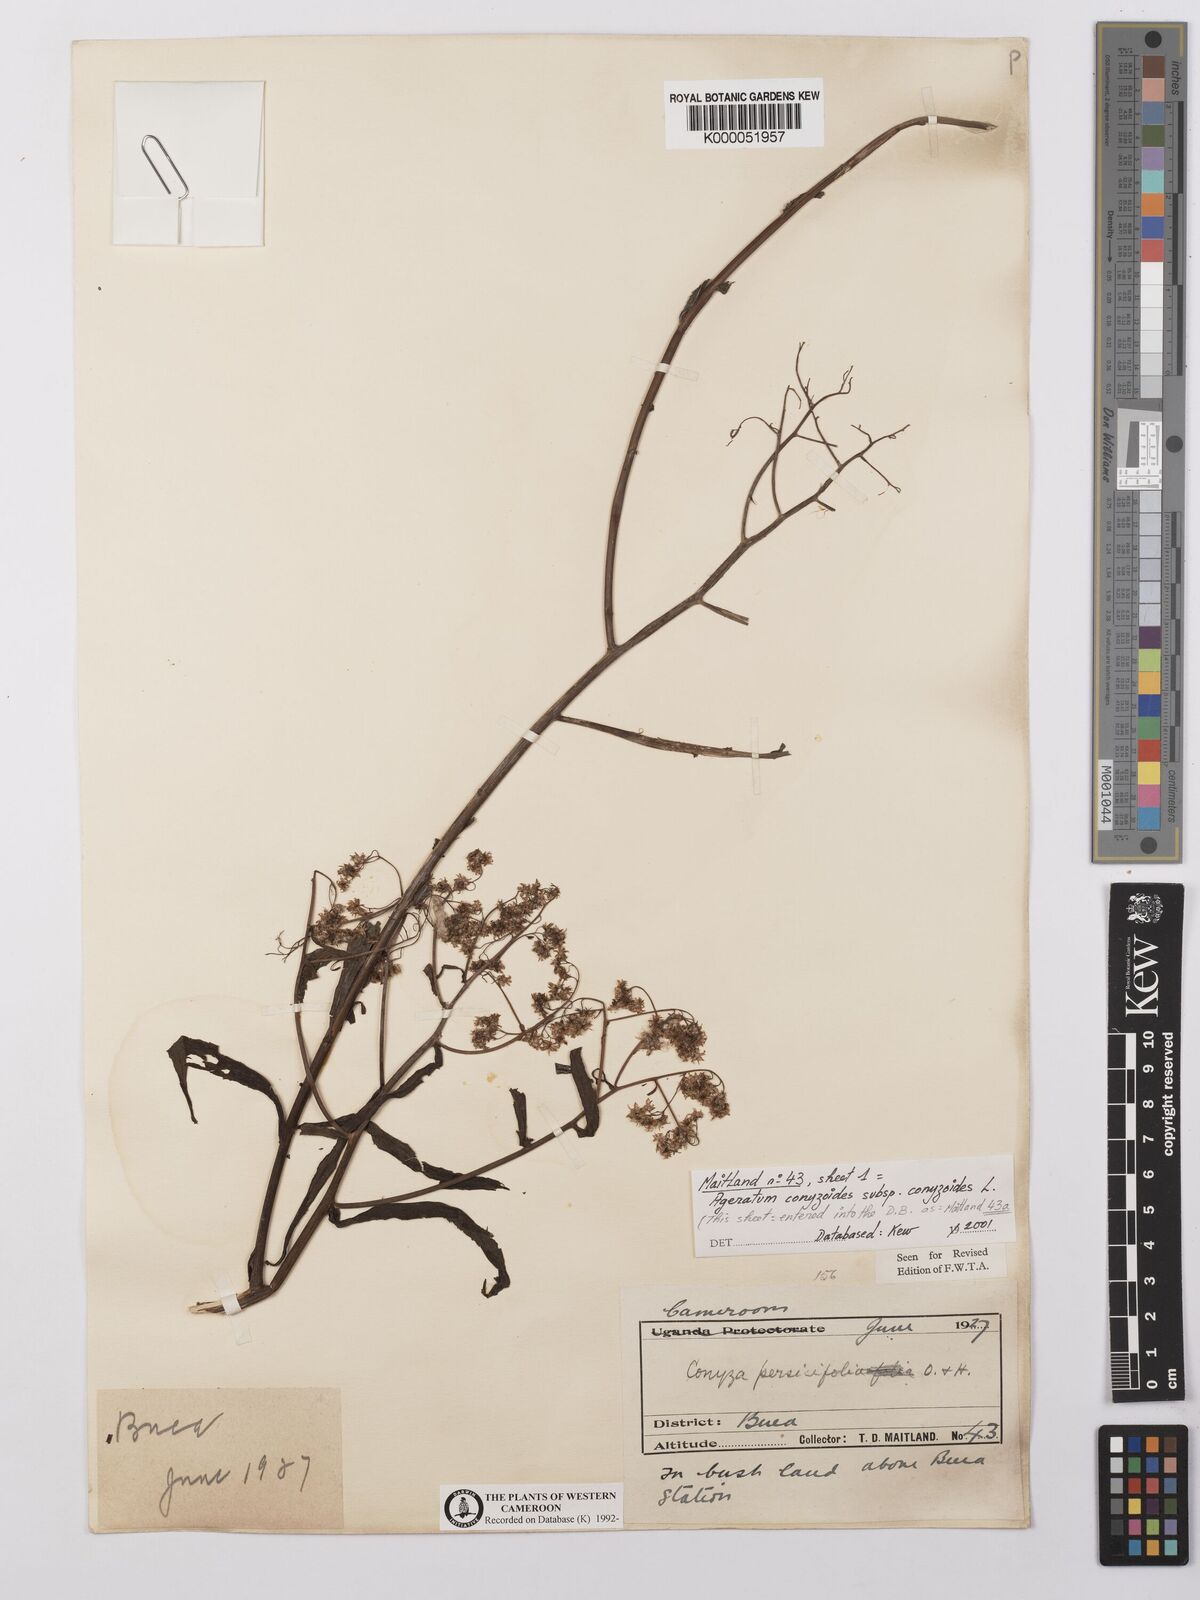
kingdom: Plantae
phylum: Tracheophyta
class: Magnoliopsida
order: Asterales
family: Asteraceae
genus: Nidorella
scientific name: Nidorella attenuata
